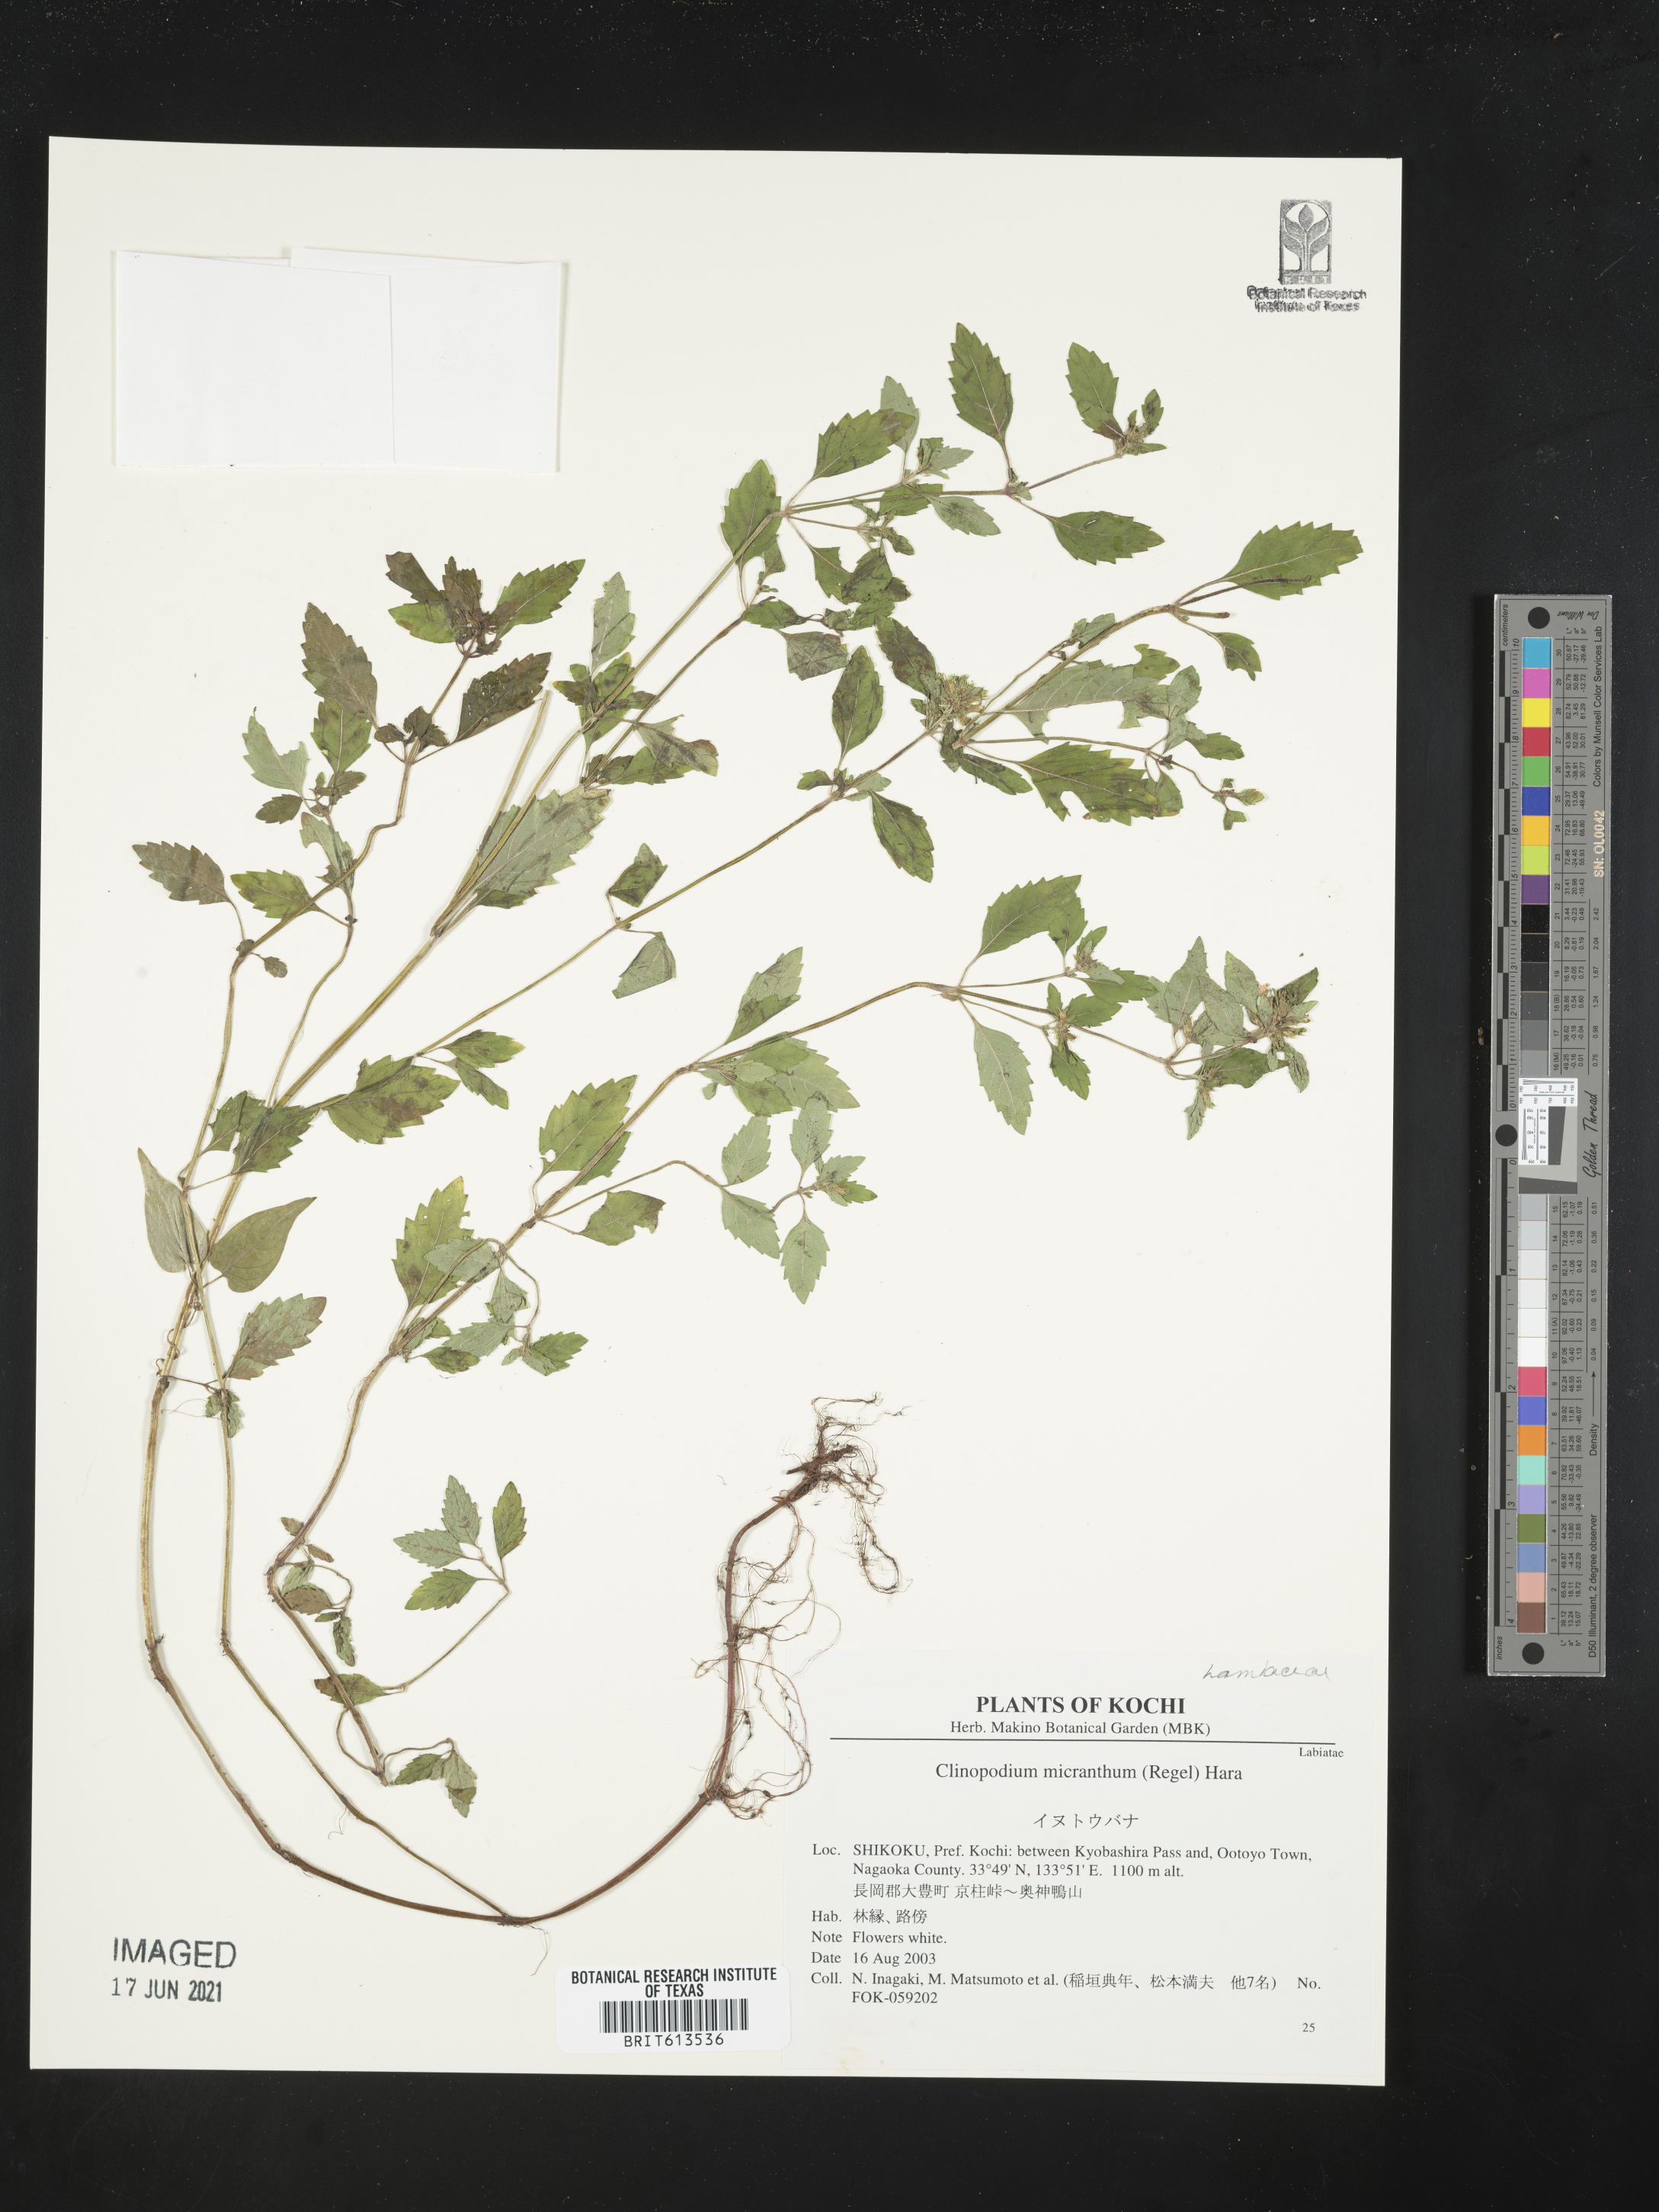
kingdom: Plantae
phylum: Tracheophyta
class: Magnoliopsida
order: Lamiales
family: Lamiaceae
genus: Clinopodium
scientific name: Clinopodium micranthum
